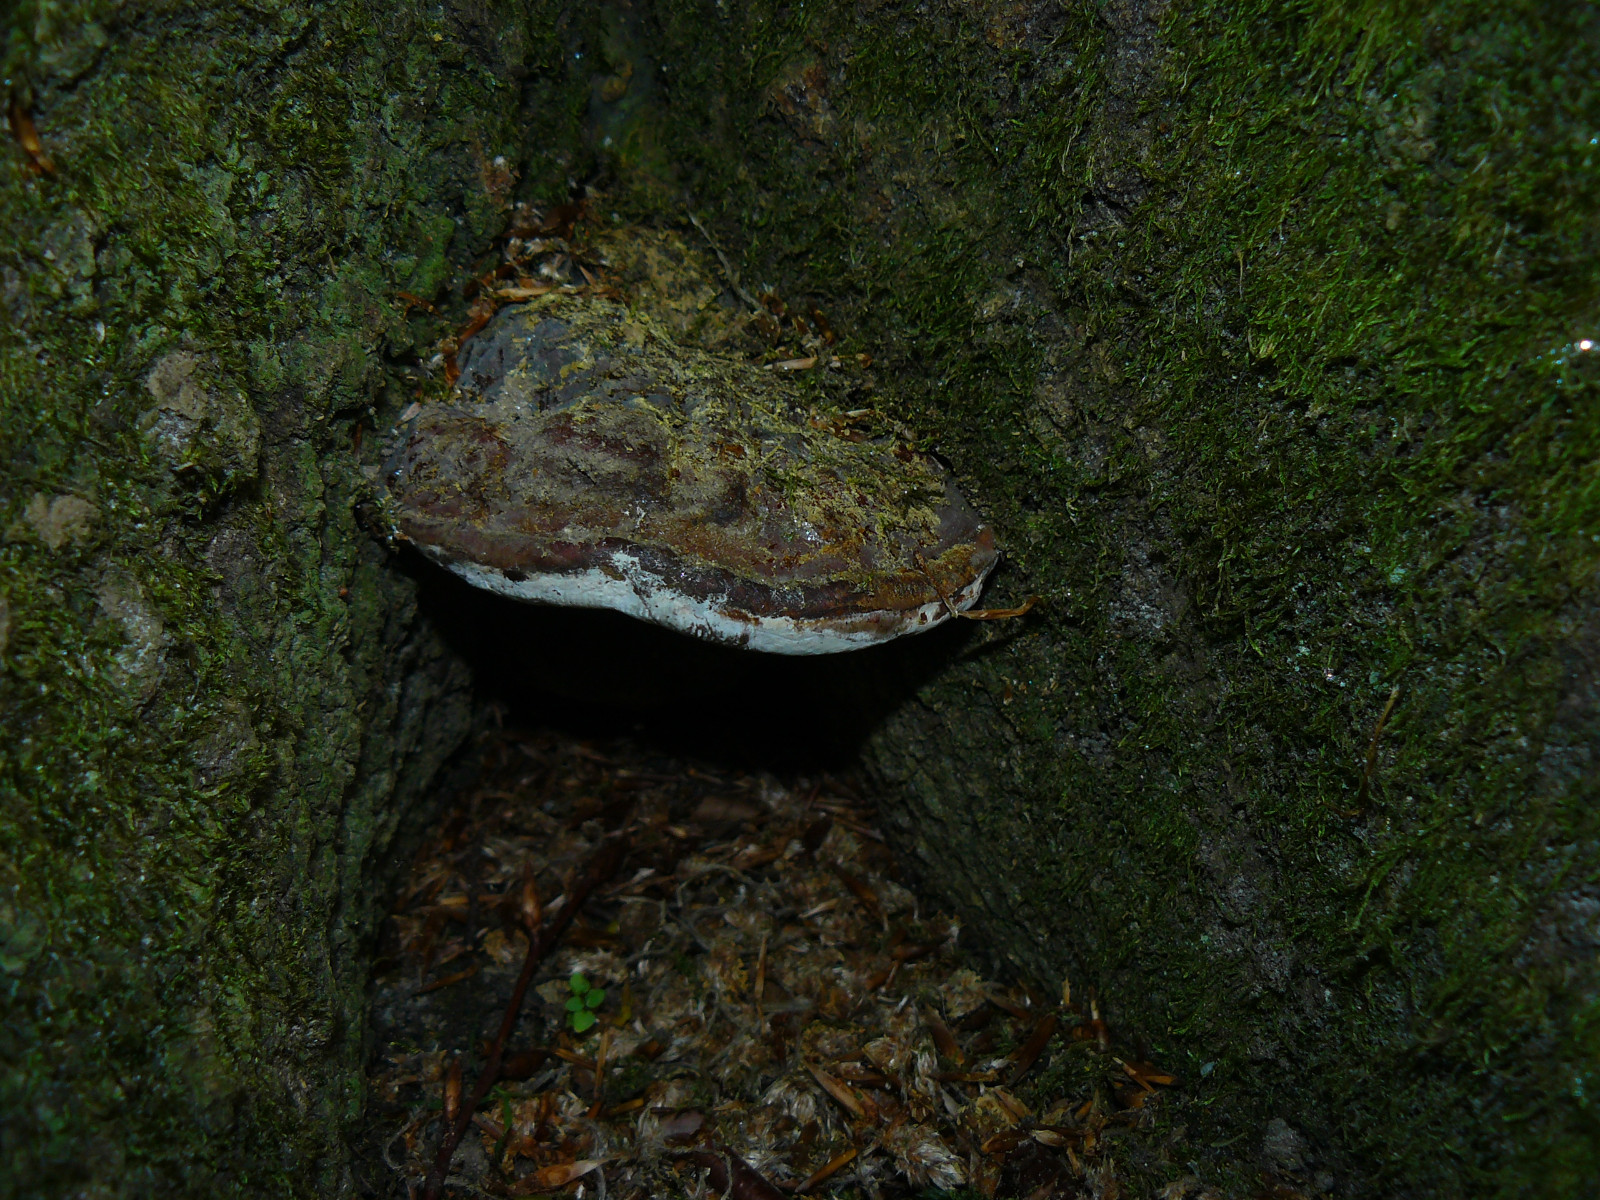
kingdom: Fungi
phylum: Basidiomycota
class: Agaricomycetes
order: Polyporales
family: Polyporaceae
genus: Ganoderma
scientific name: Ganoderma pfeifferi
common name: kobberrød lakporesvamp
